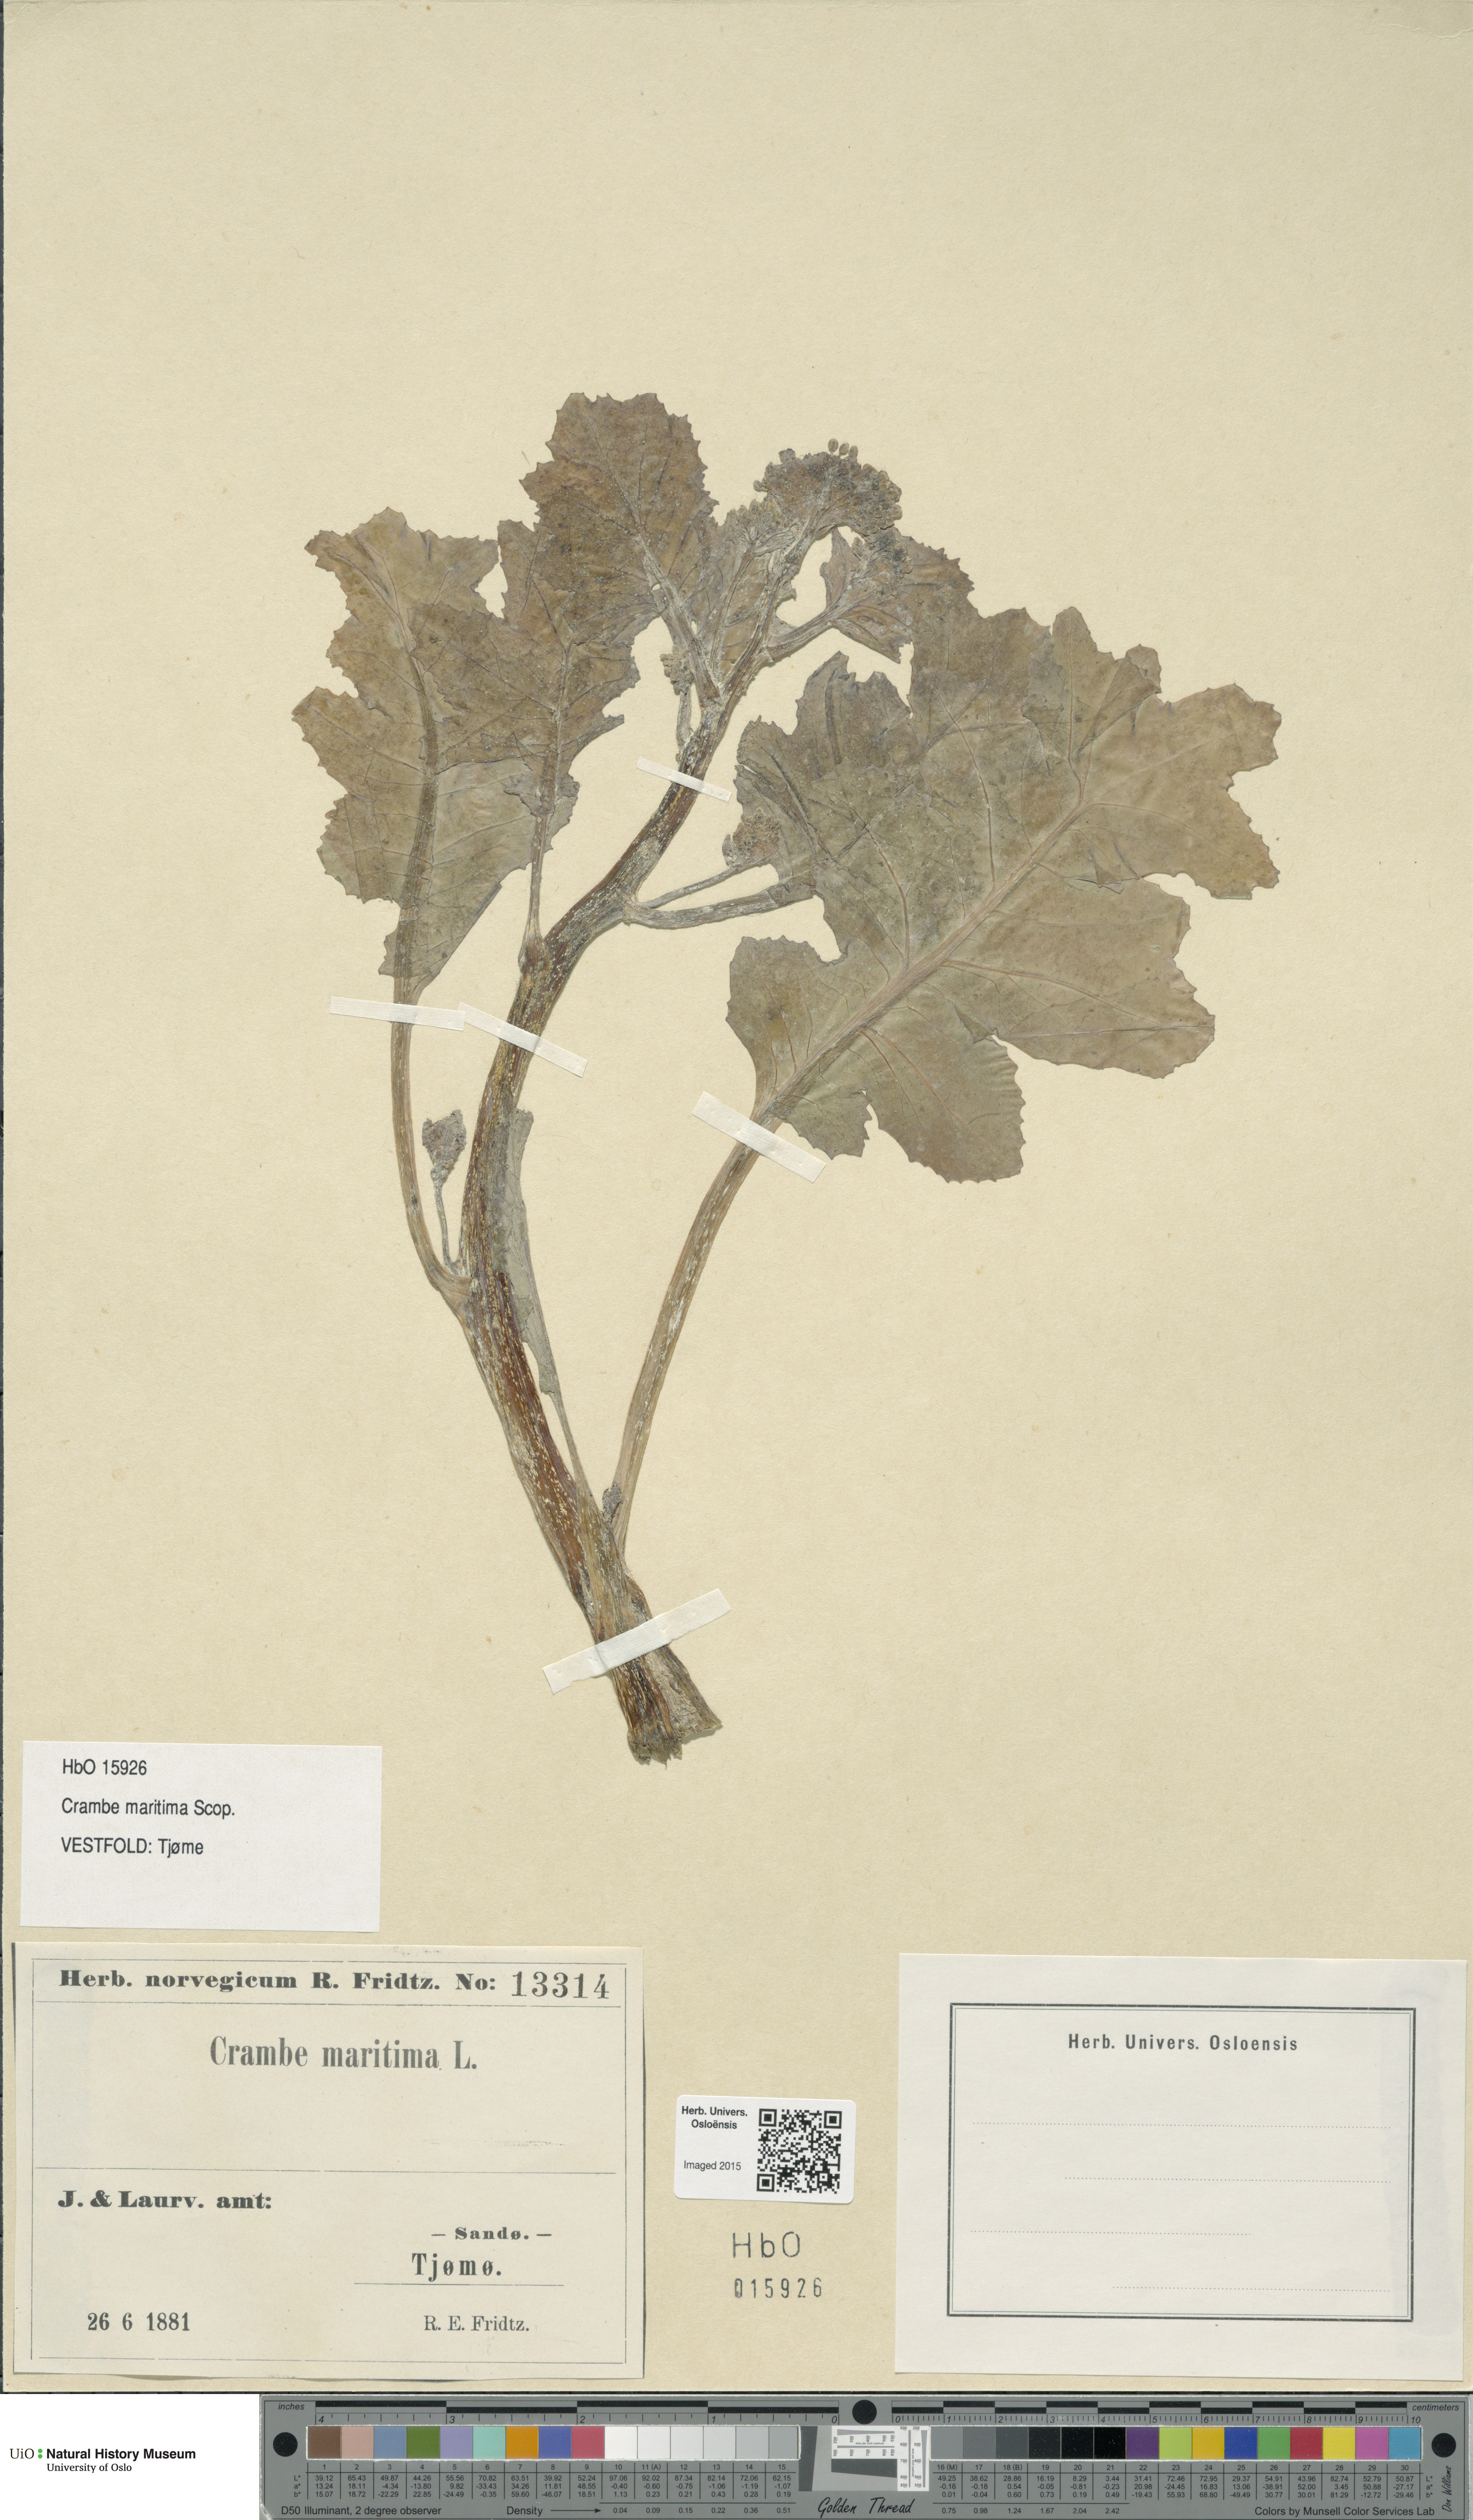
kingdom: Plantae
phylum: Tracheophyta
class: Magnoliopsida
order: Brassicales
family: Brassicaceae
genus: Crambe
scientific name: Crambe maritima
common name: Sea-kale
